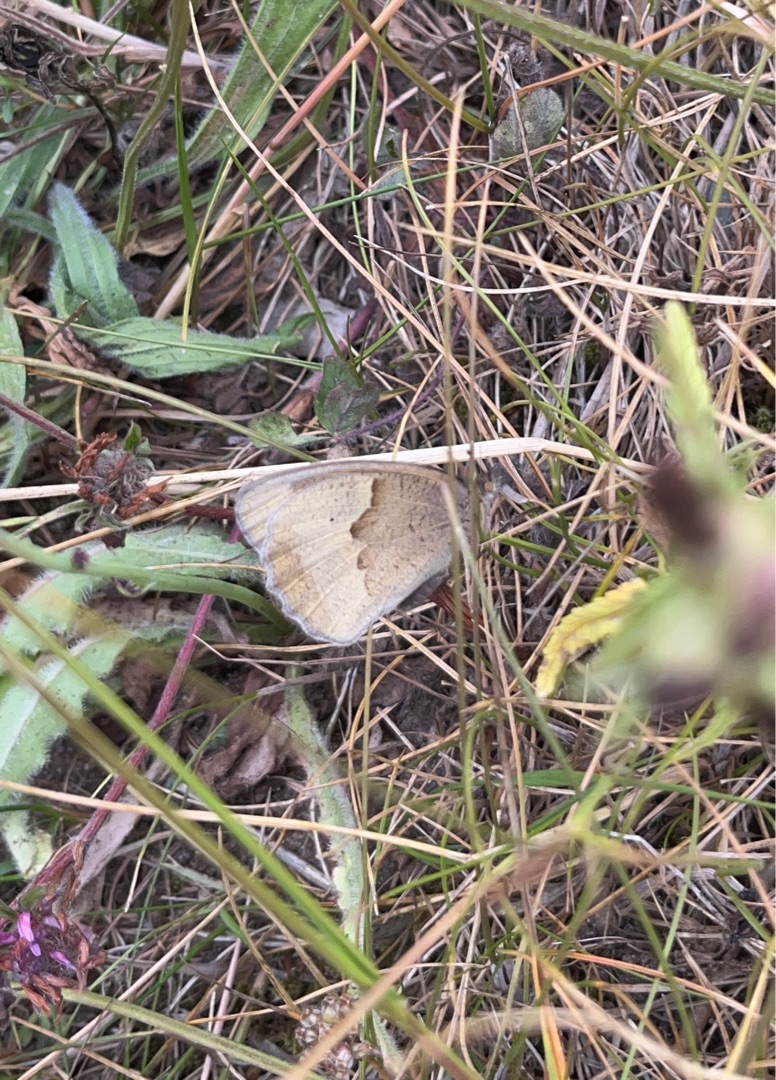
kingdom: Animalia
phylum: Arthropoda
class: Insecta
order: Lepidoptera
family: Nymphalidae
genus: Maniola
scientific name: Maniola jurtina
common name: Græsrandøje
